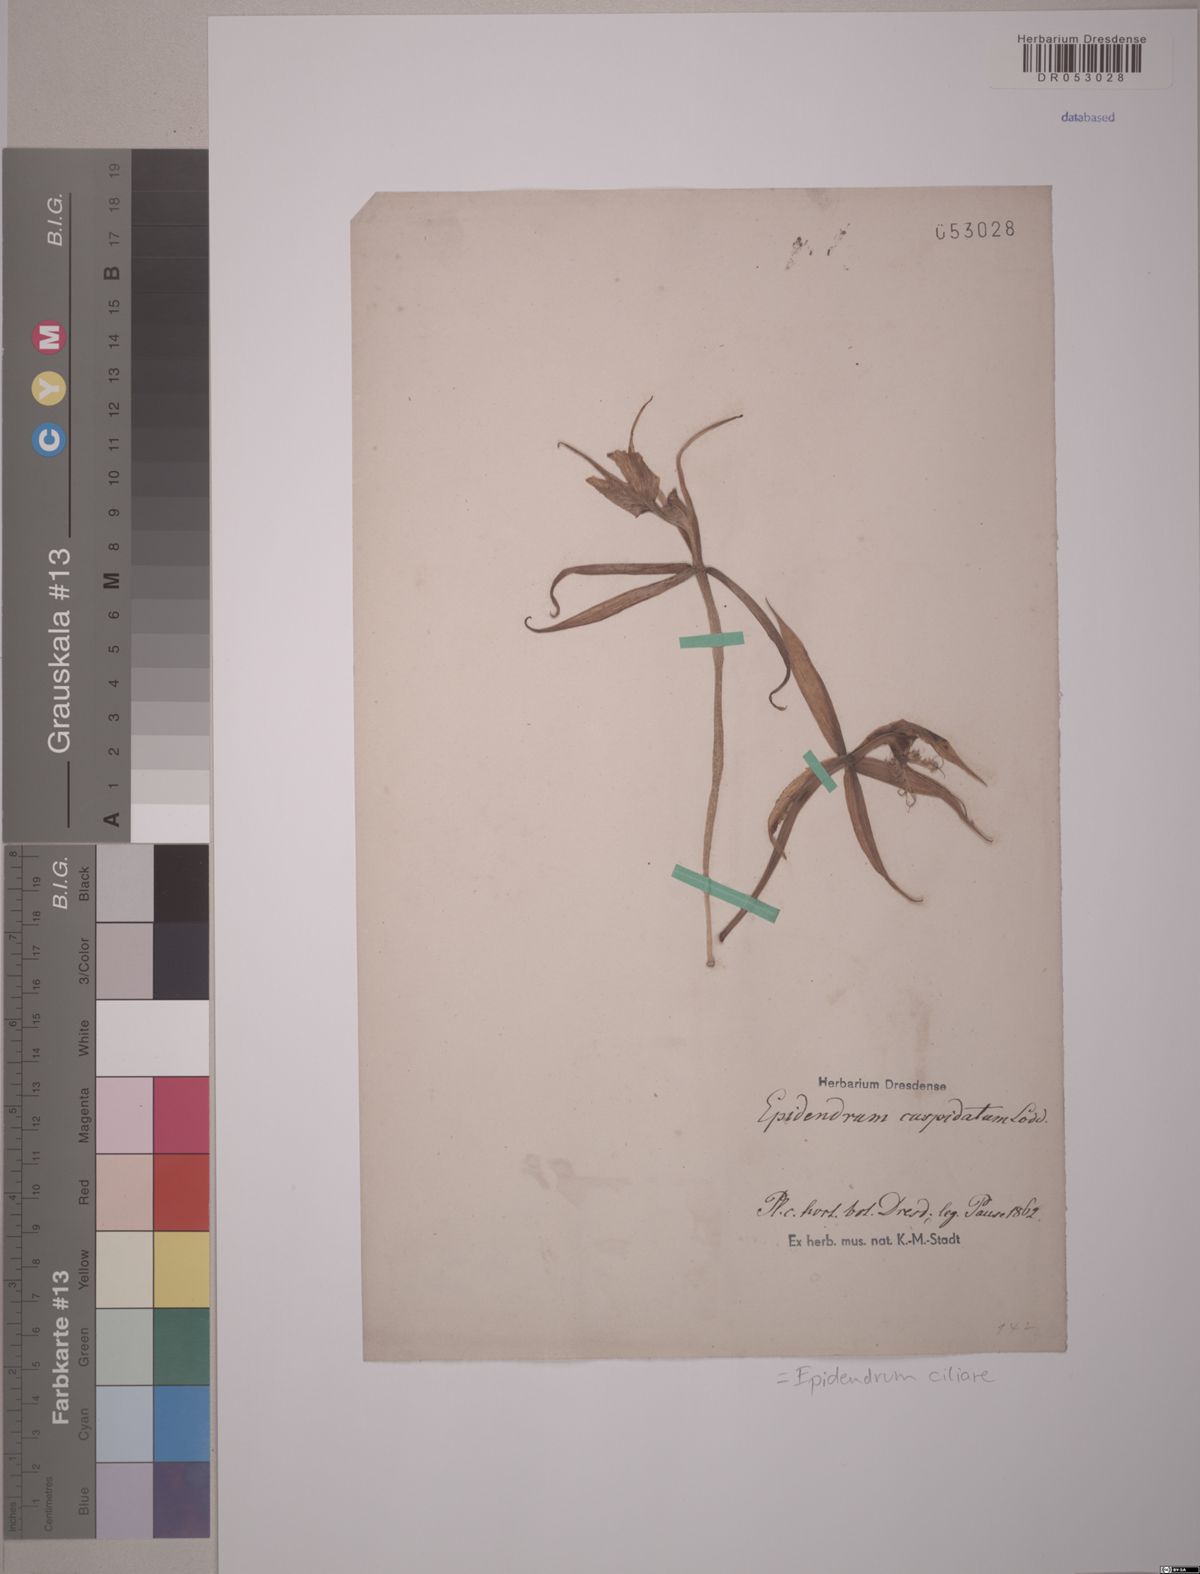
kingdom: Plantae
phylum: Tracheophyta
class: Liliopsida
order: Asparagales
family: Orchidaceae
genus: Epidendrum
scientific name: Epidendrum ciliare
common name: Eyelash orchid
